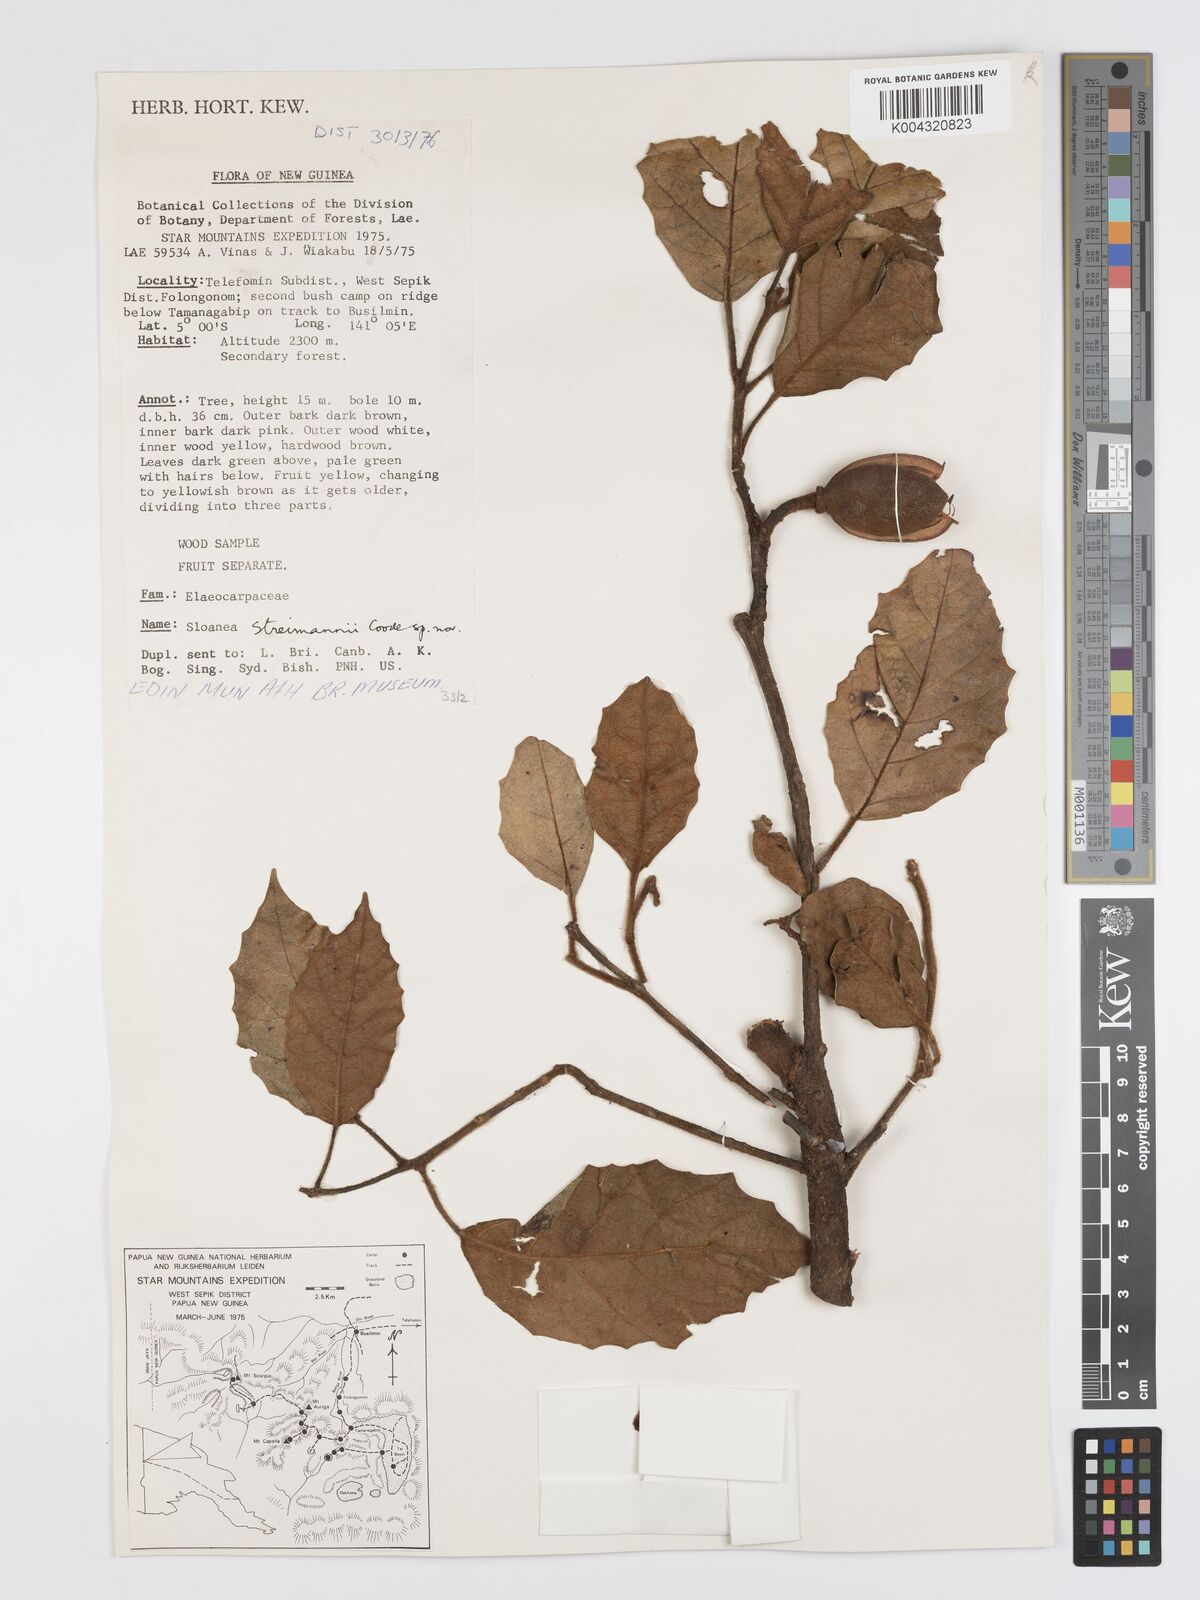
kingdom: Plantae
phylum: Tracheophyta
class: Magnoliopsida
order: Oxalidales
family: Elaeocarpaceae
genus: Sloanea
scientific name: Sloanea streimannii
